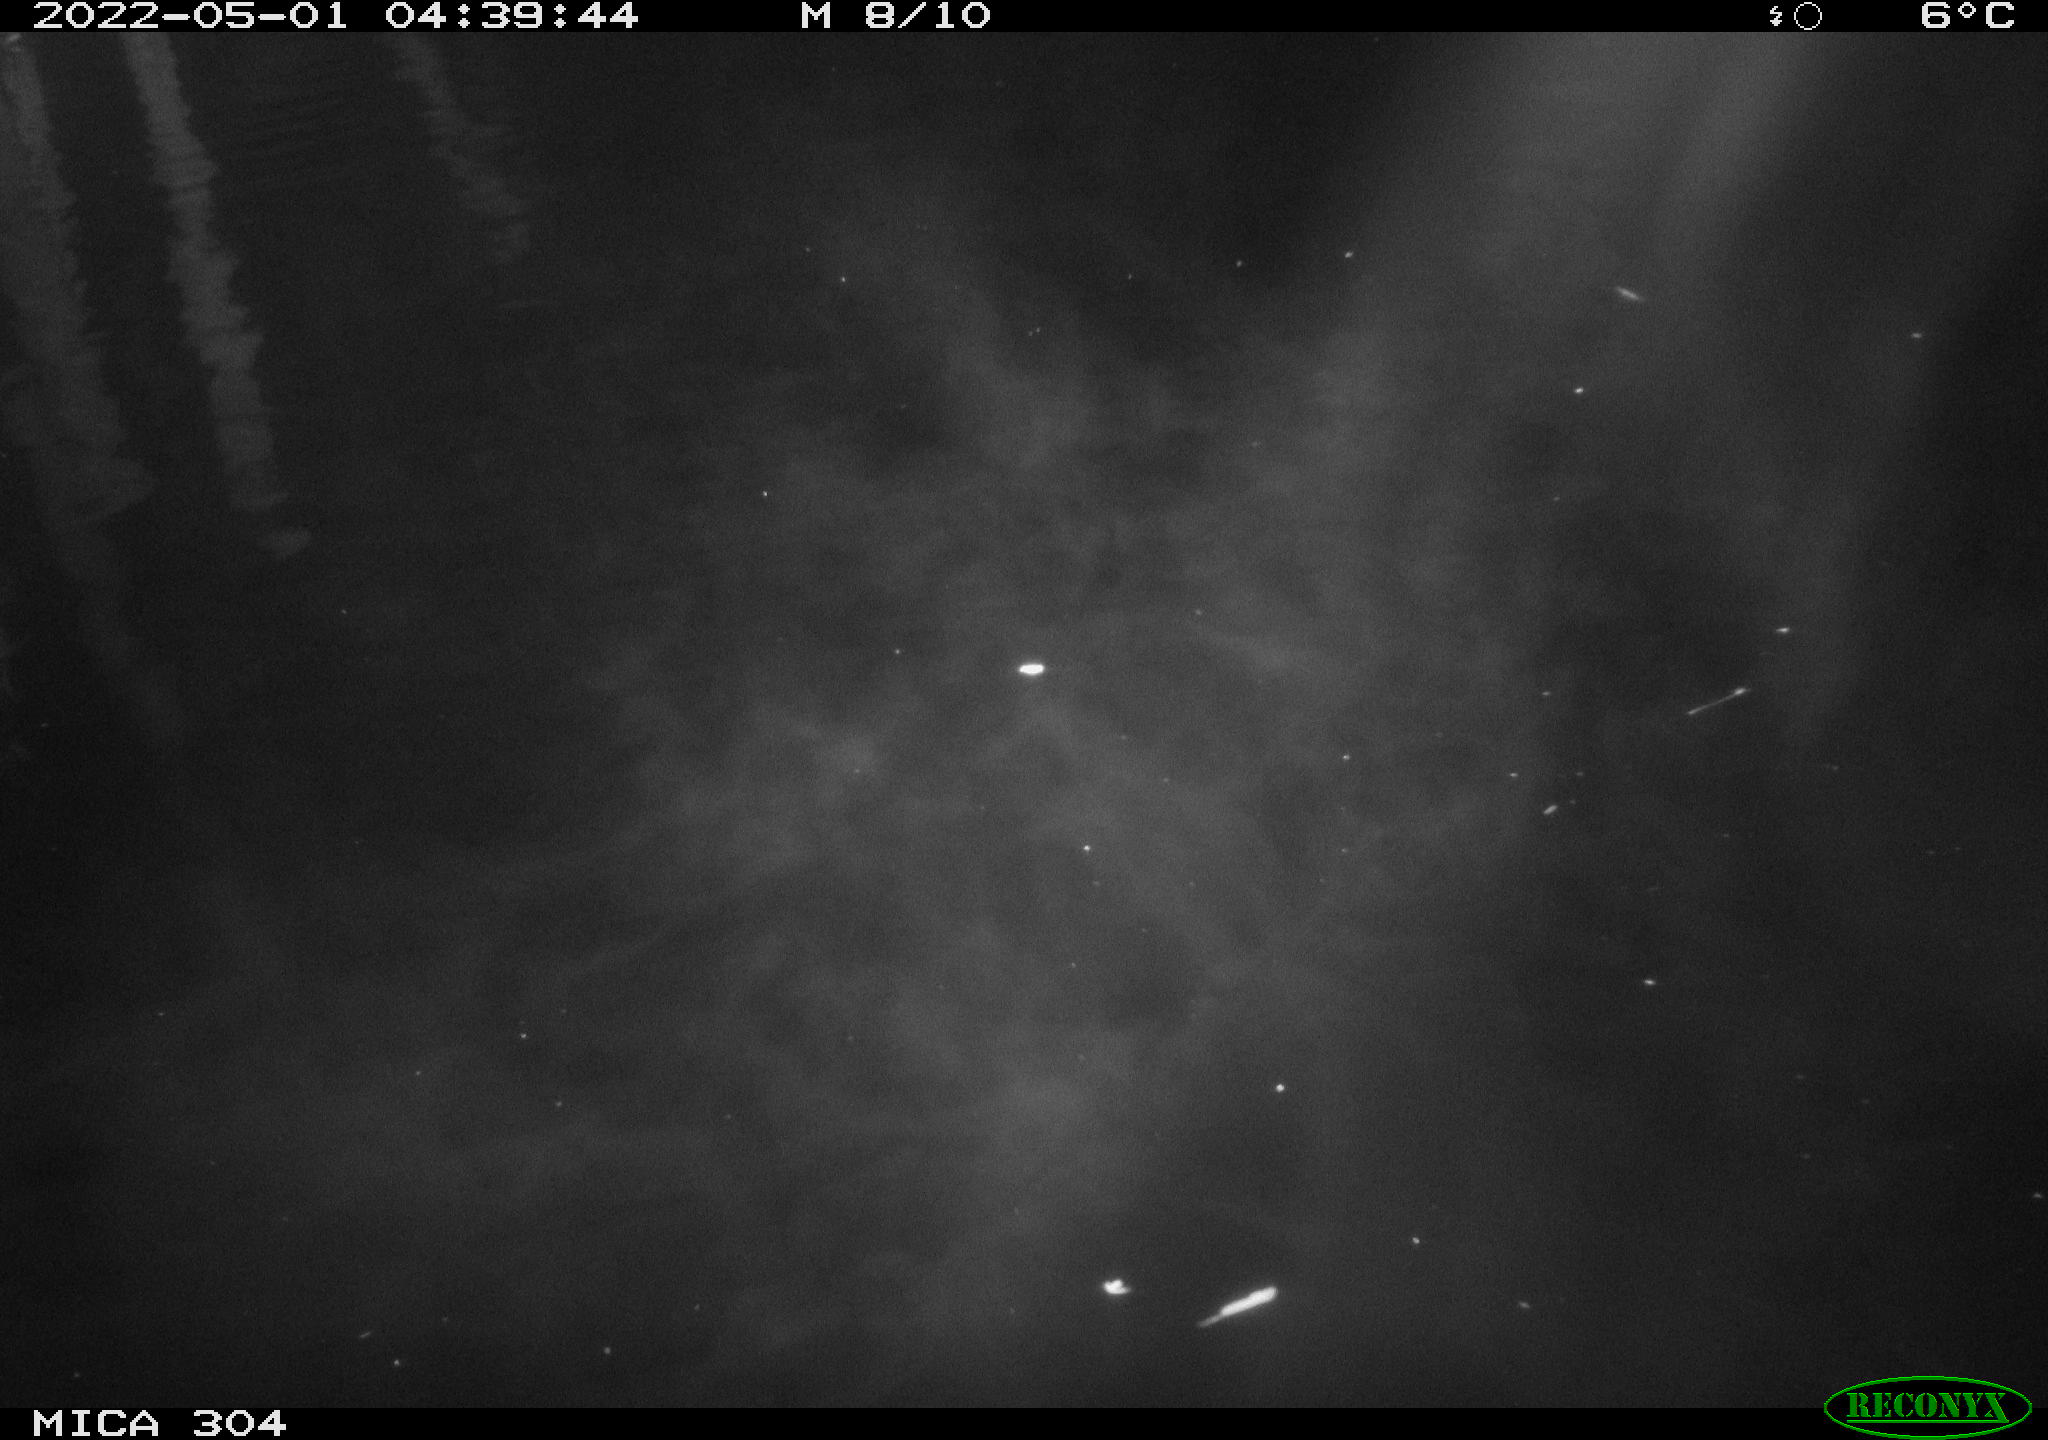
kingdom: Animalia
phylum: Chordata
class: Mammalia
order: Rodentia
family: Cricetidae
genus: Ondatra
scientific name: Ondatra zibethicus
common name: Muskrat
